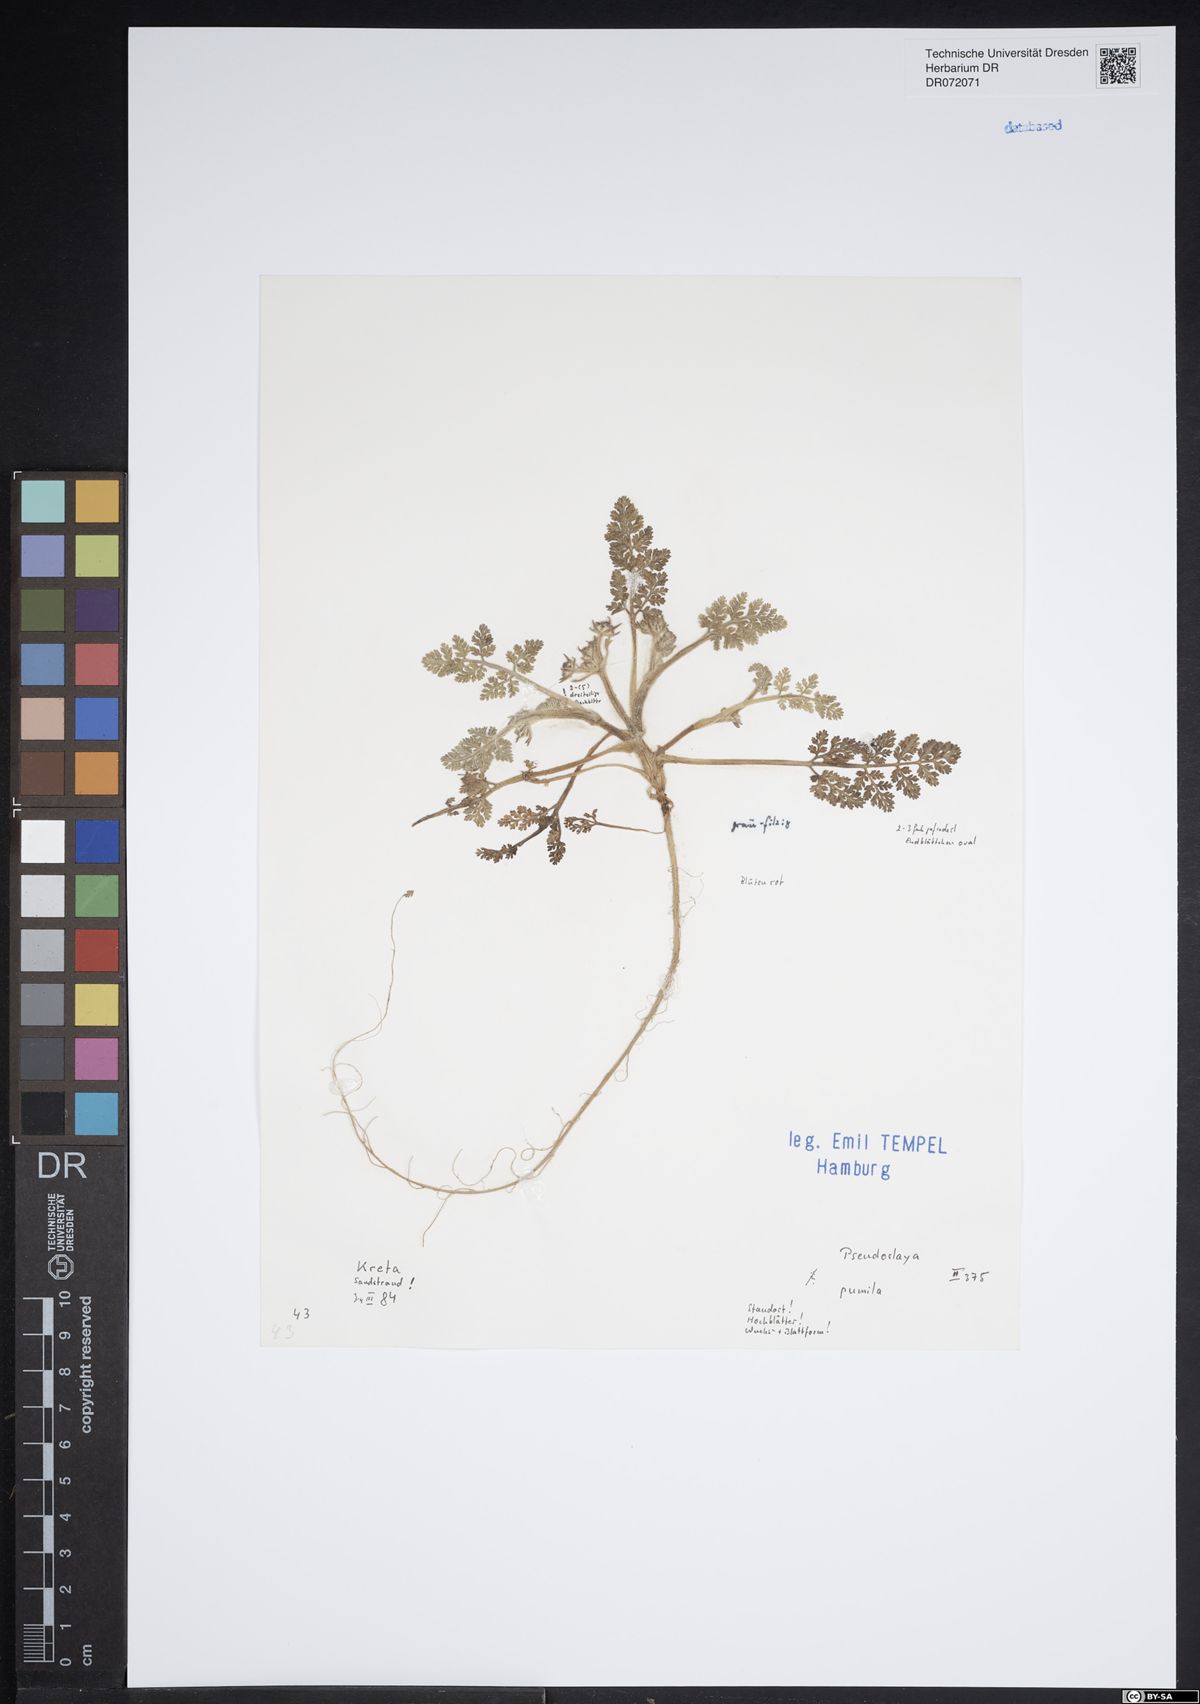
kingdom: Plantae
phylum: Tracheophyta
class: Magnoliopsida
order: Apiales
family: Apiaceae
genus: Daucus
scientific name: Daucus pumilus
